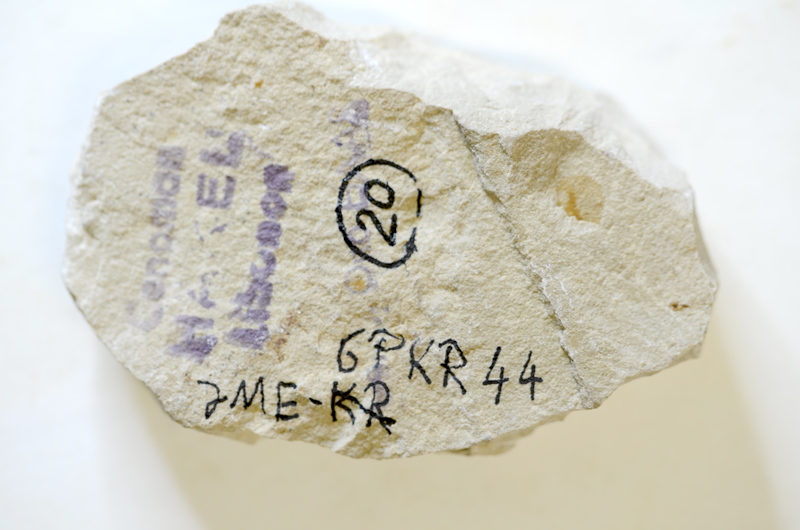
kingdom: Animalia
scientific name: Animalia
